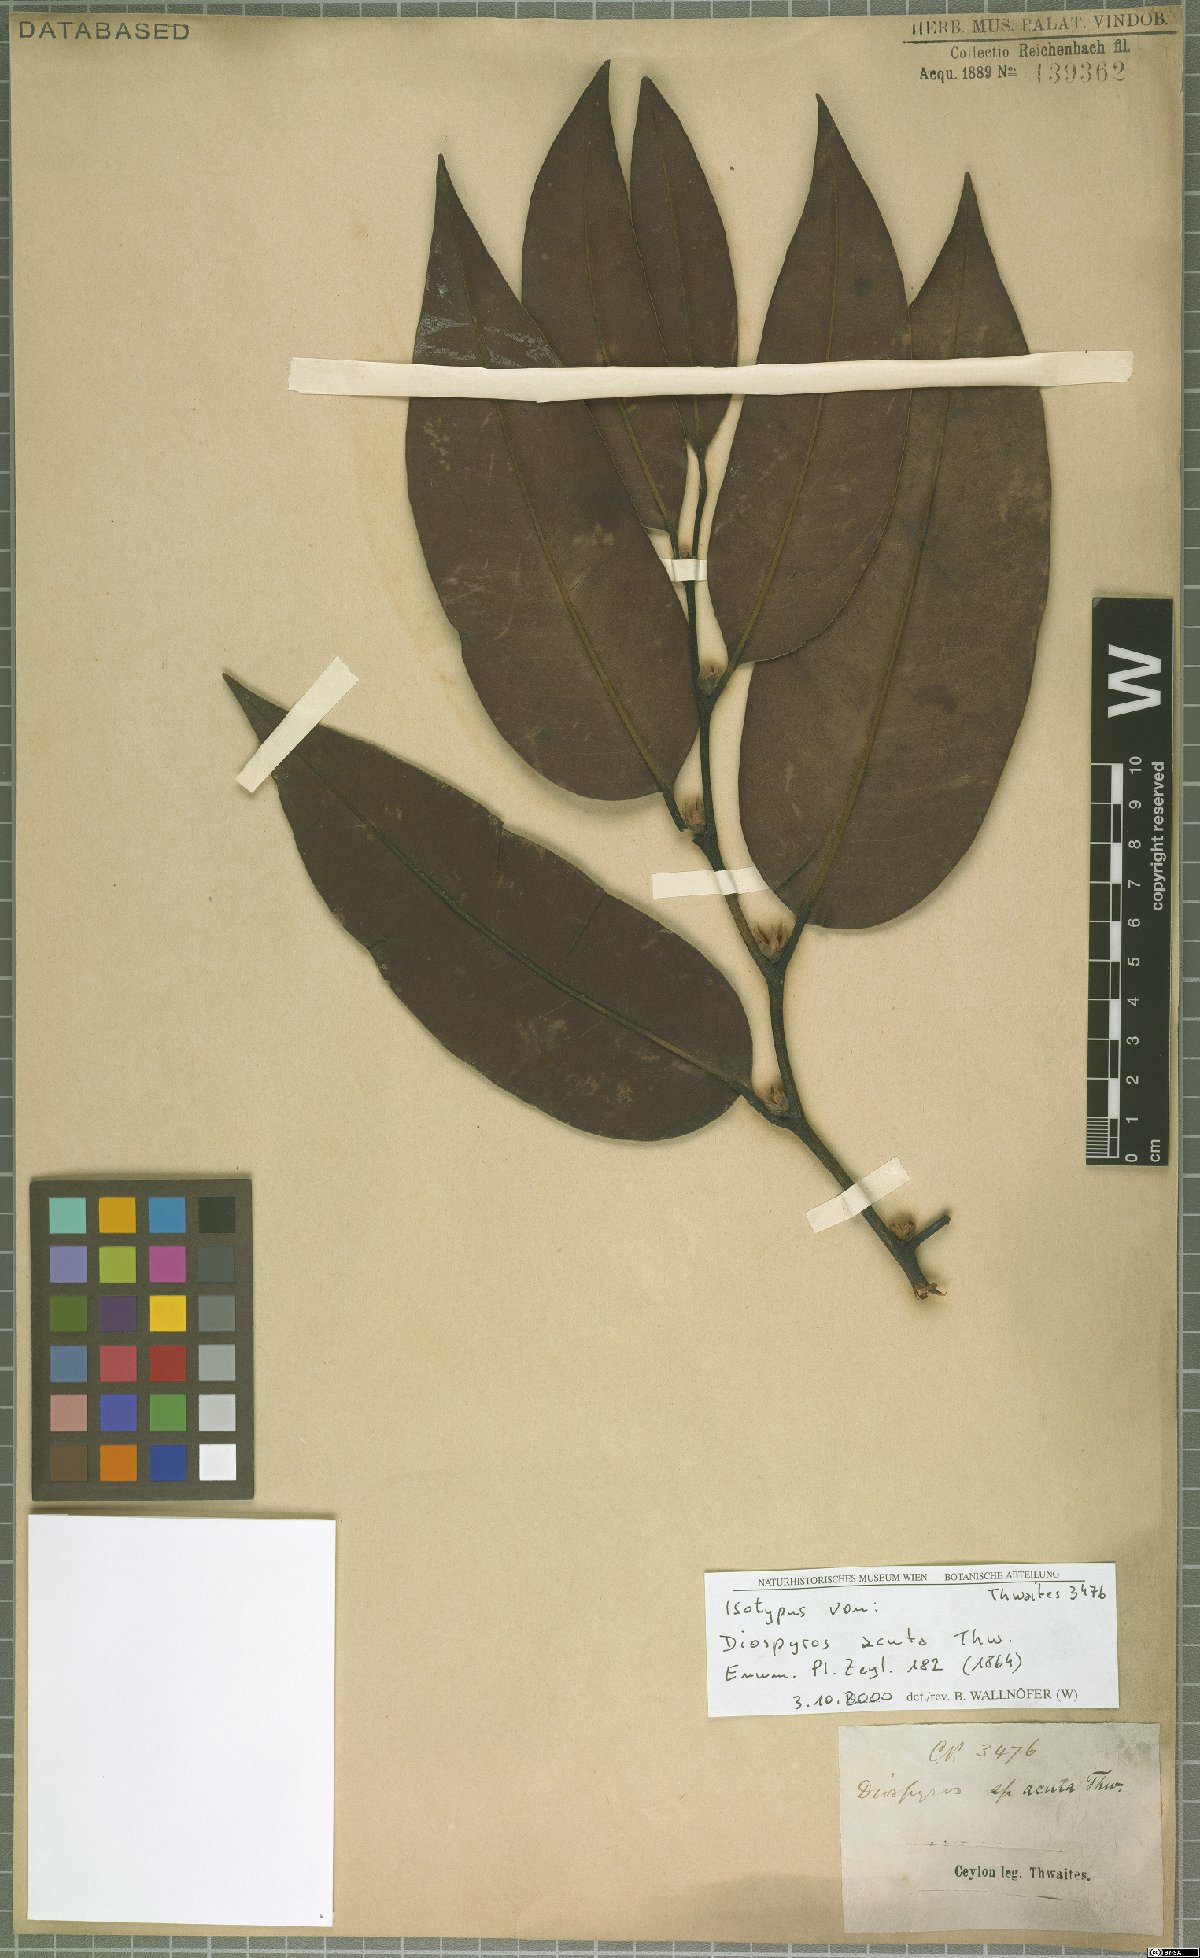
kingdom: Plantae
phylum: Tracheophyta
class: Magnoliopsida
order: Ericales
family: Ebenaceae
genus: Diospyros
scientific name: Diospyros acuta
